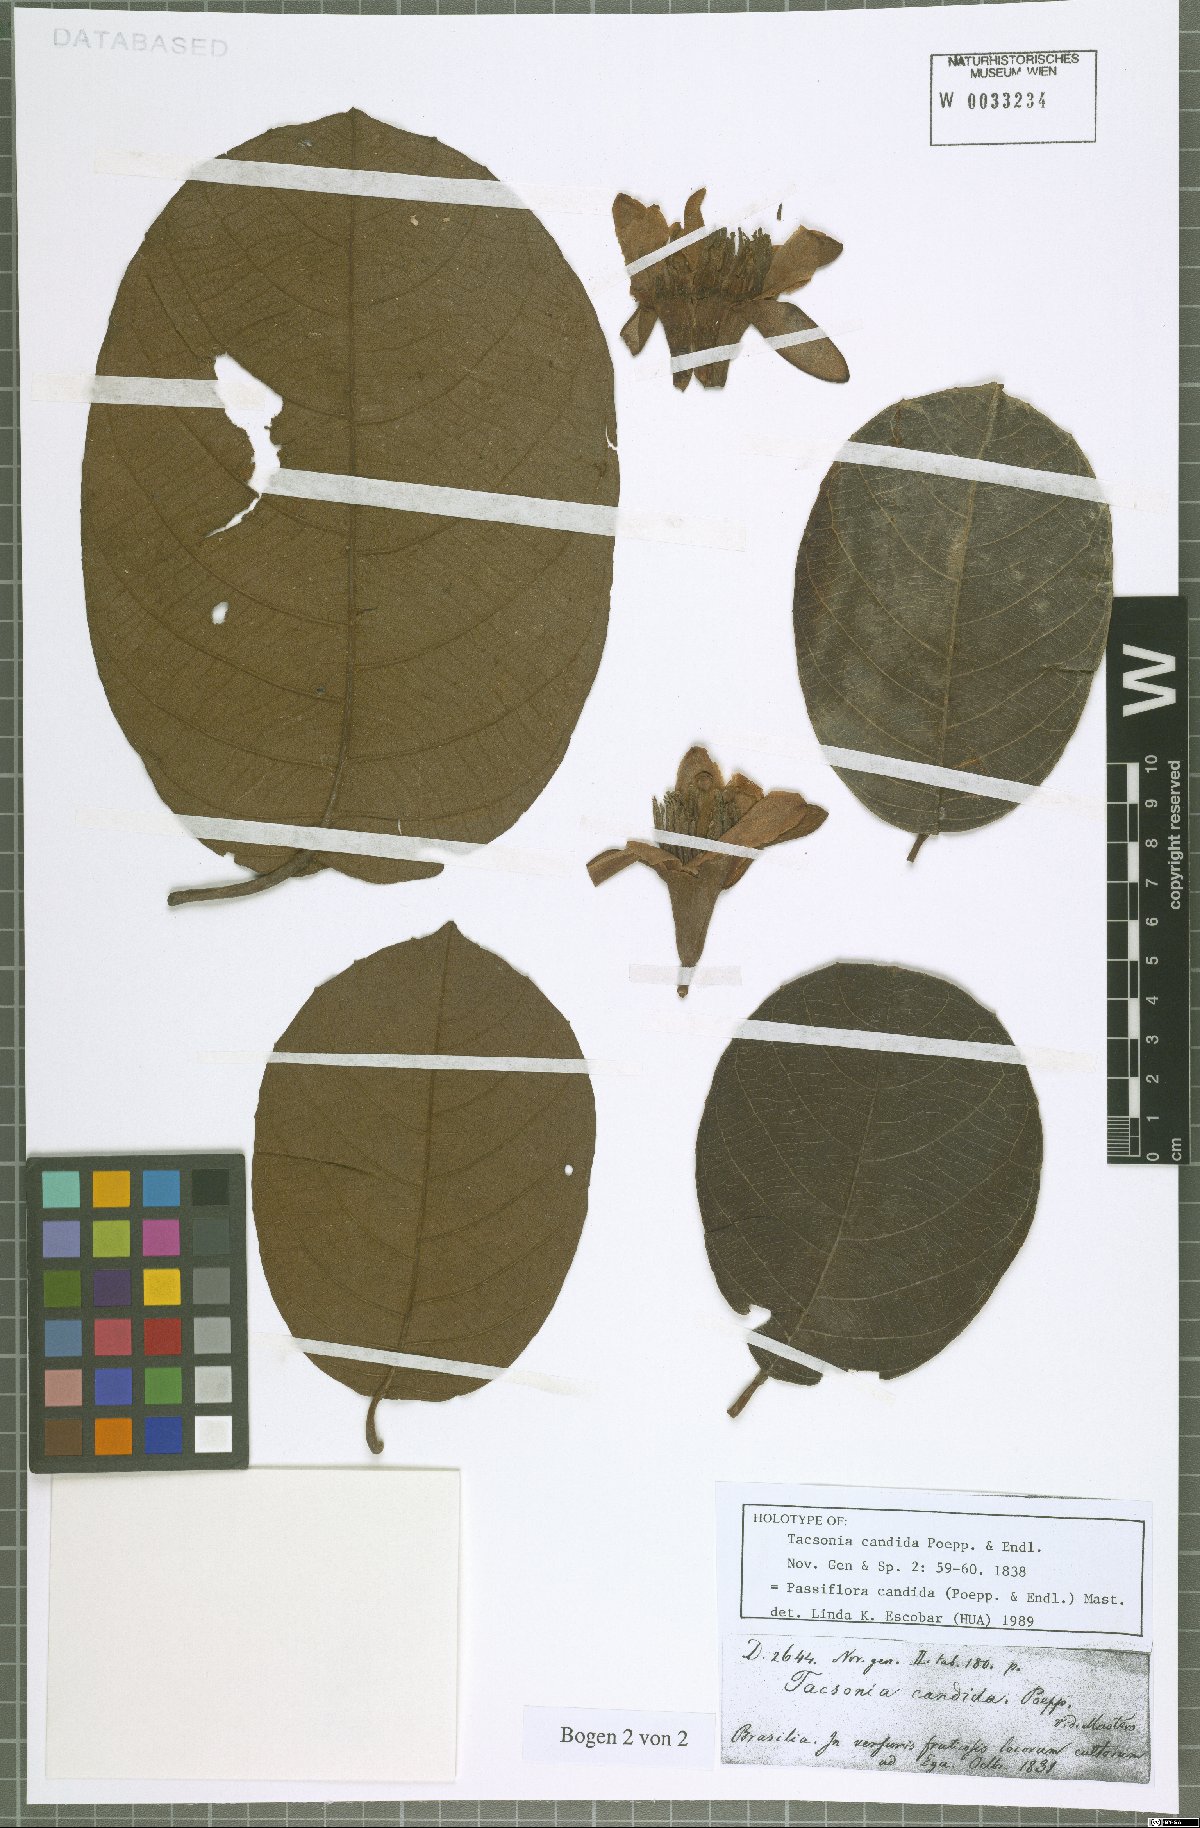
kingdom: Plantae
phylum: Tracheophyta
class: Magnoliopsida
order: Malpighiales
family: Passifloraceae
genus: Passiflora
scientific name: Passiflora candida
